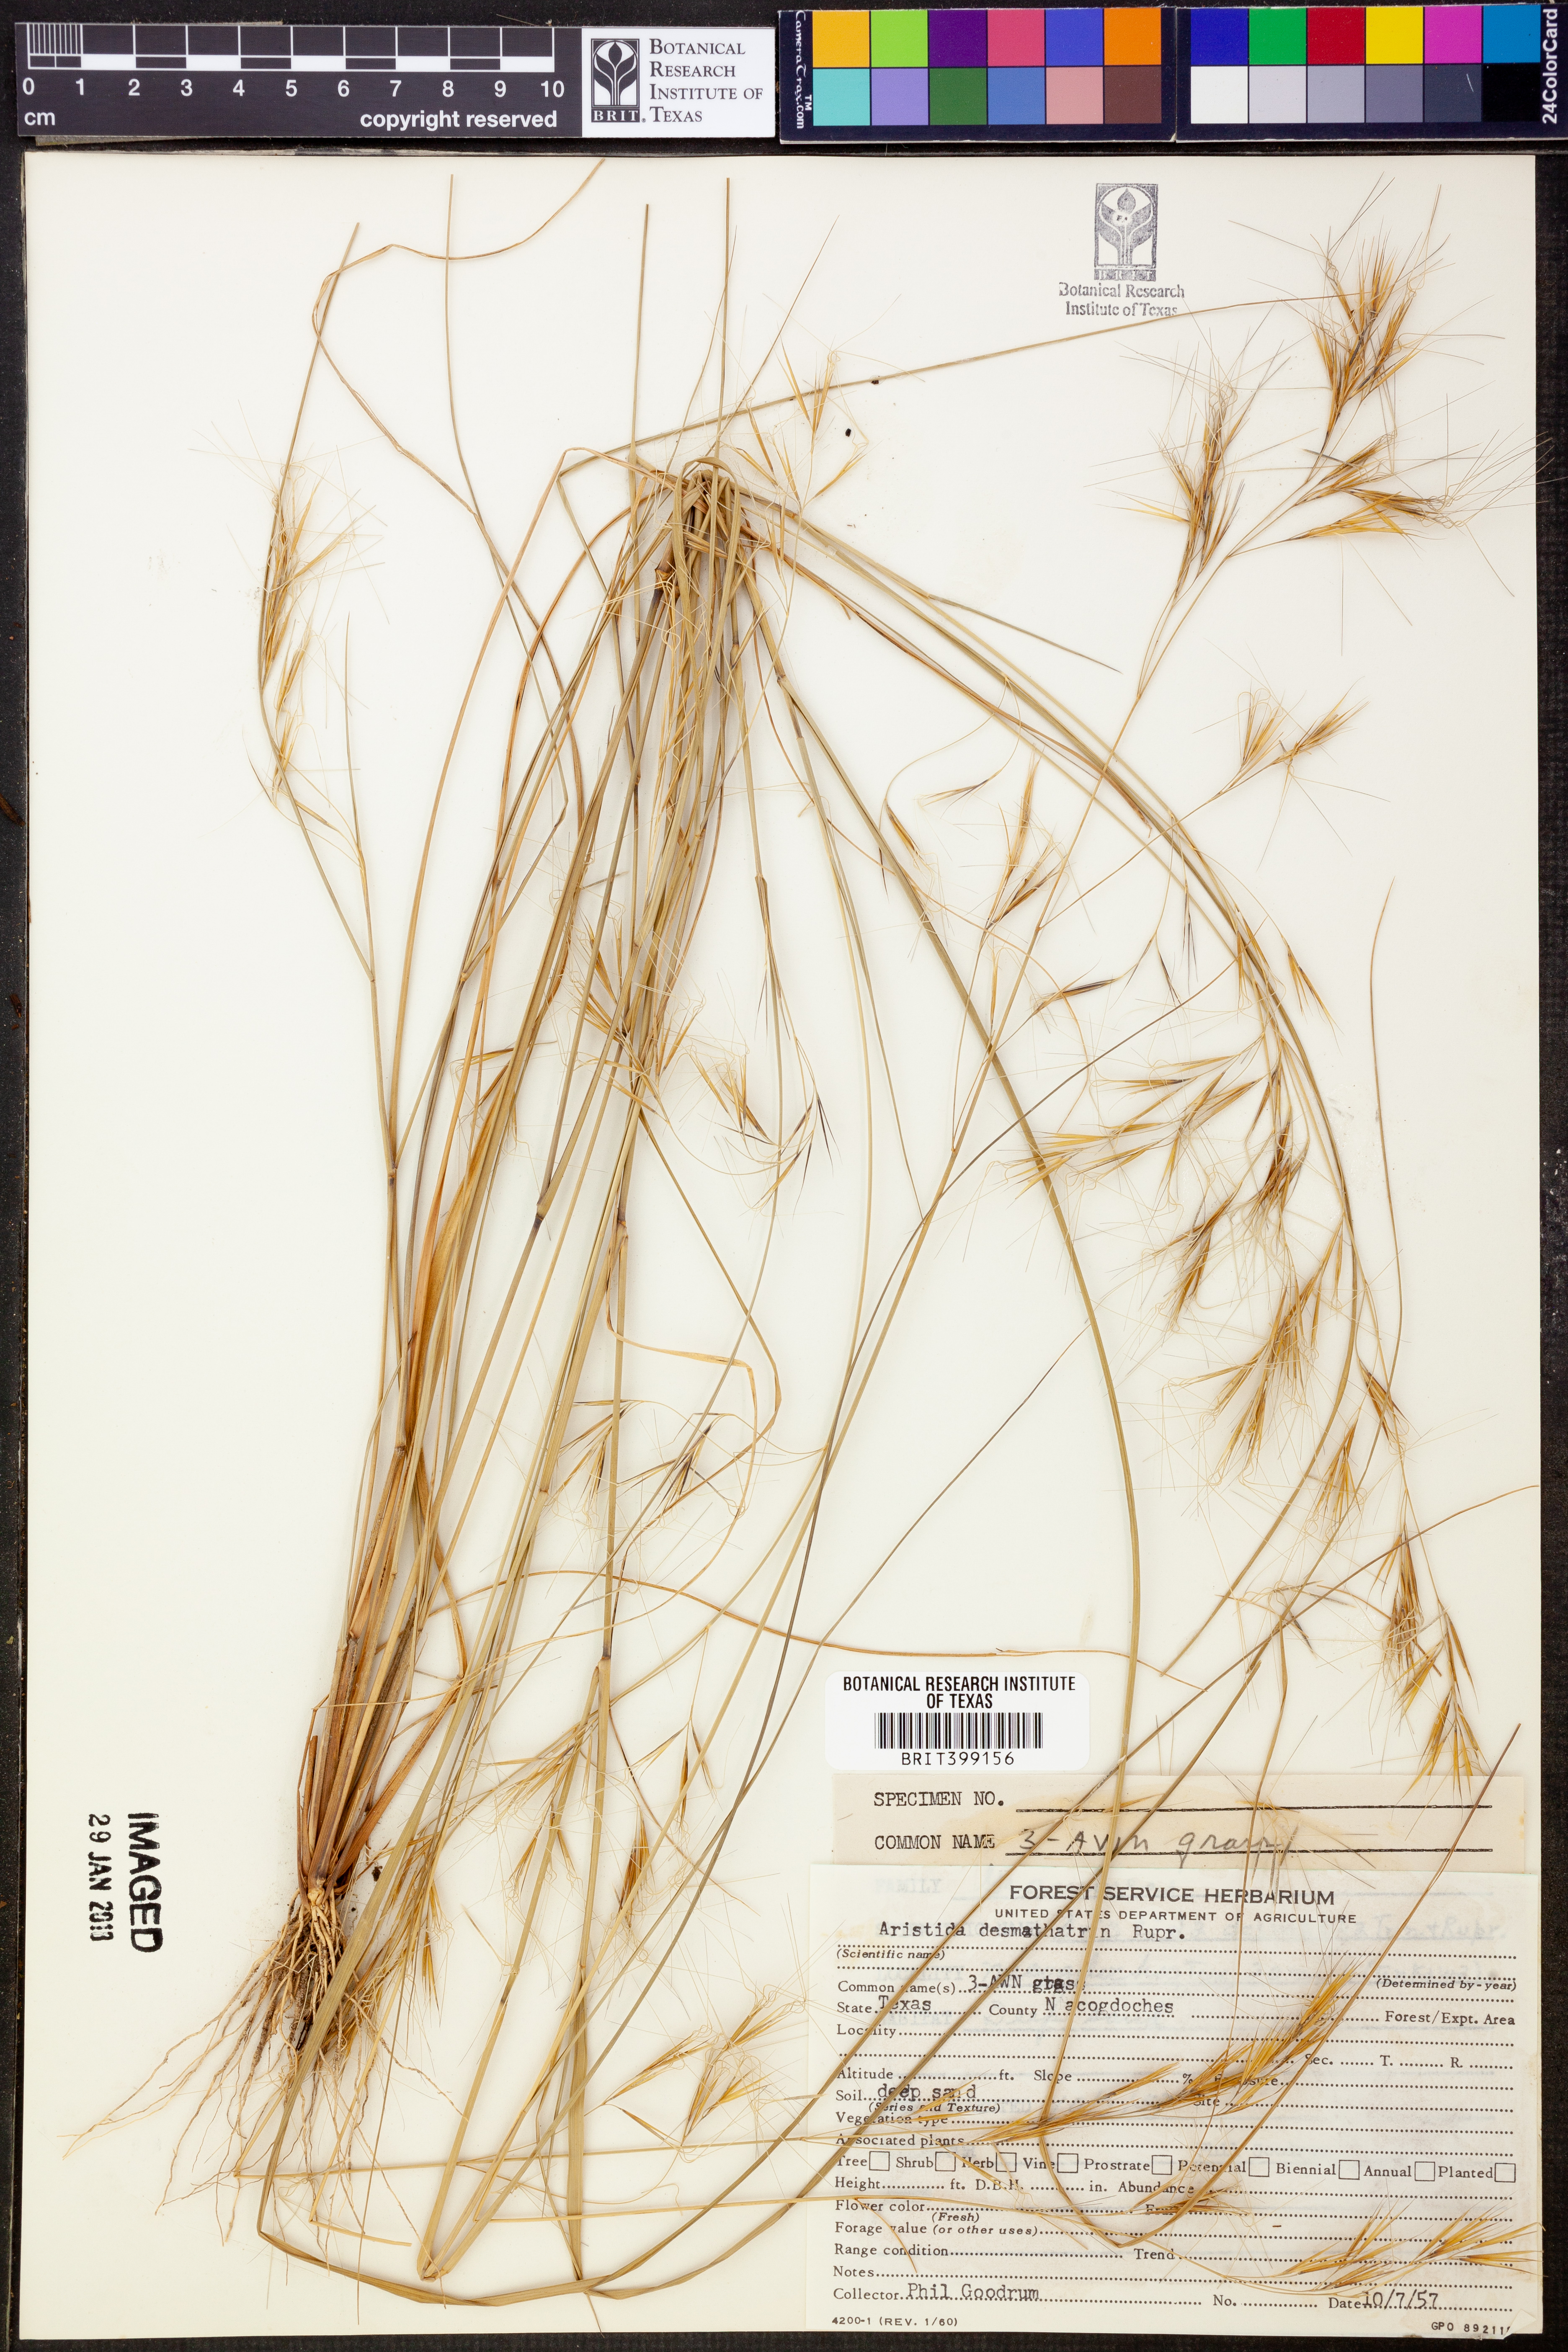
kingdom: Plantae
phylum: Tracheophyta
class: Liliopsida
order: Poales
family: Poaceae
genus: Aristida
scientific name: Aristida desmantha
